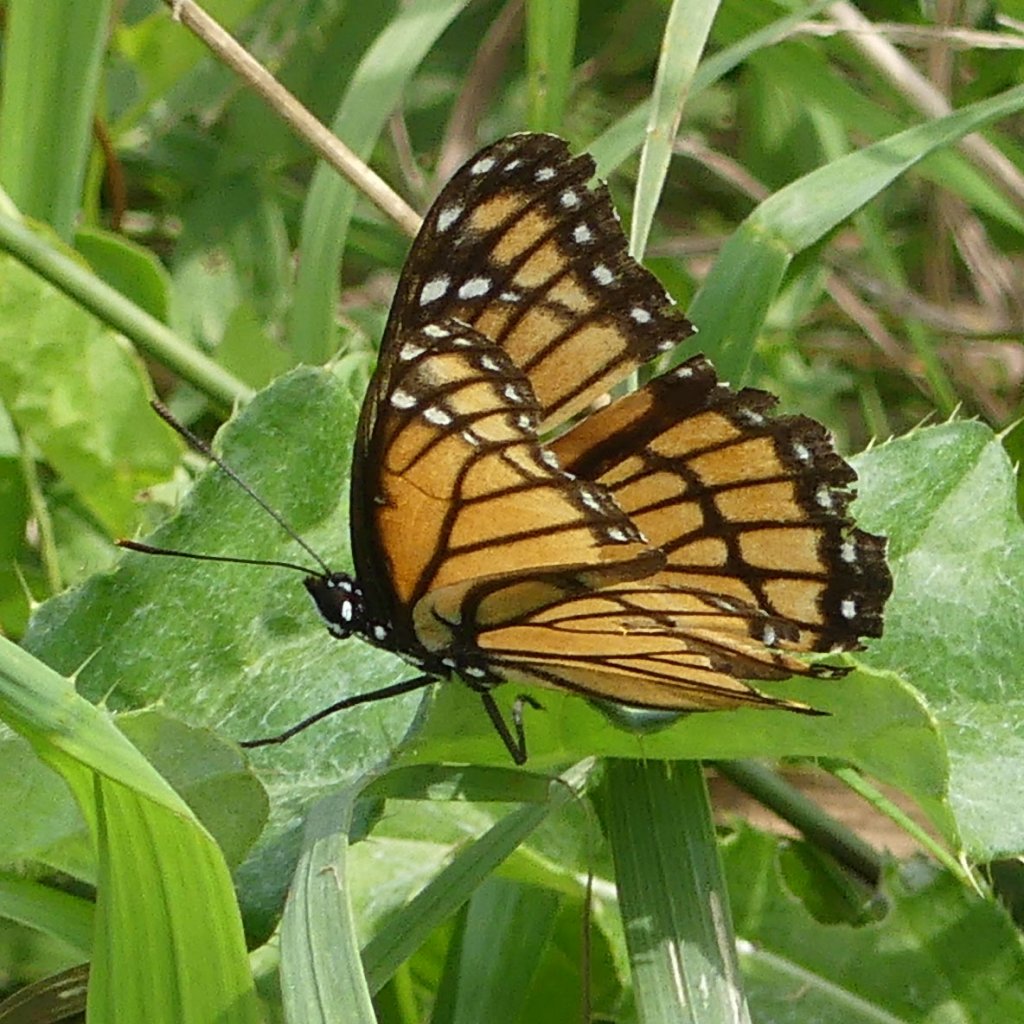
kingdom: Animalia
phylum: Arthropoda
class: Insecta
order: Lepidoptera
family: Nymphalidae
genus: Limenitis
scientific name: Limenitis archippus
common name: Viceroy
